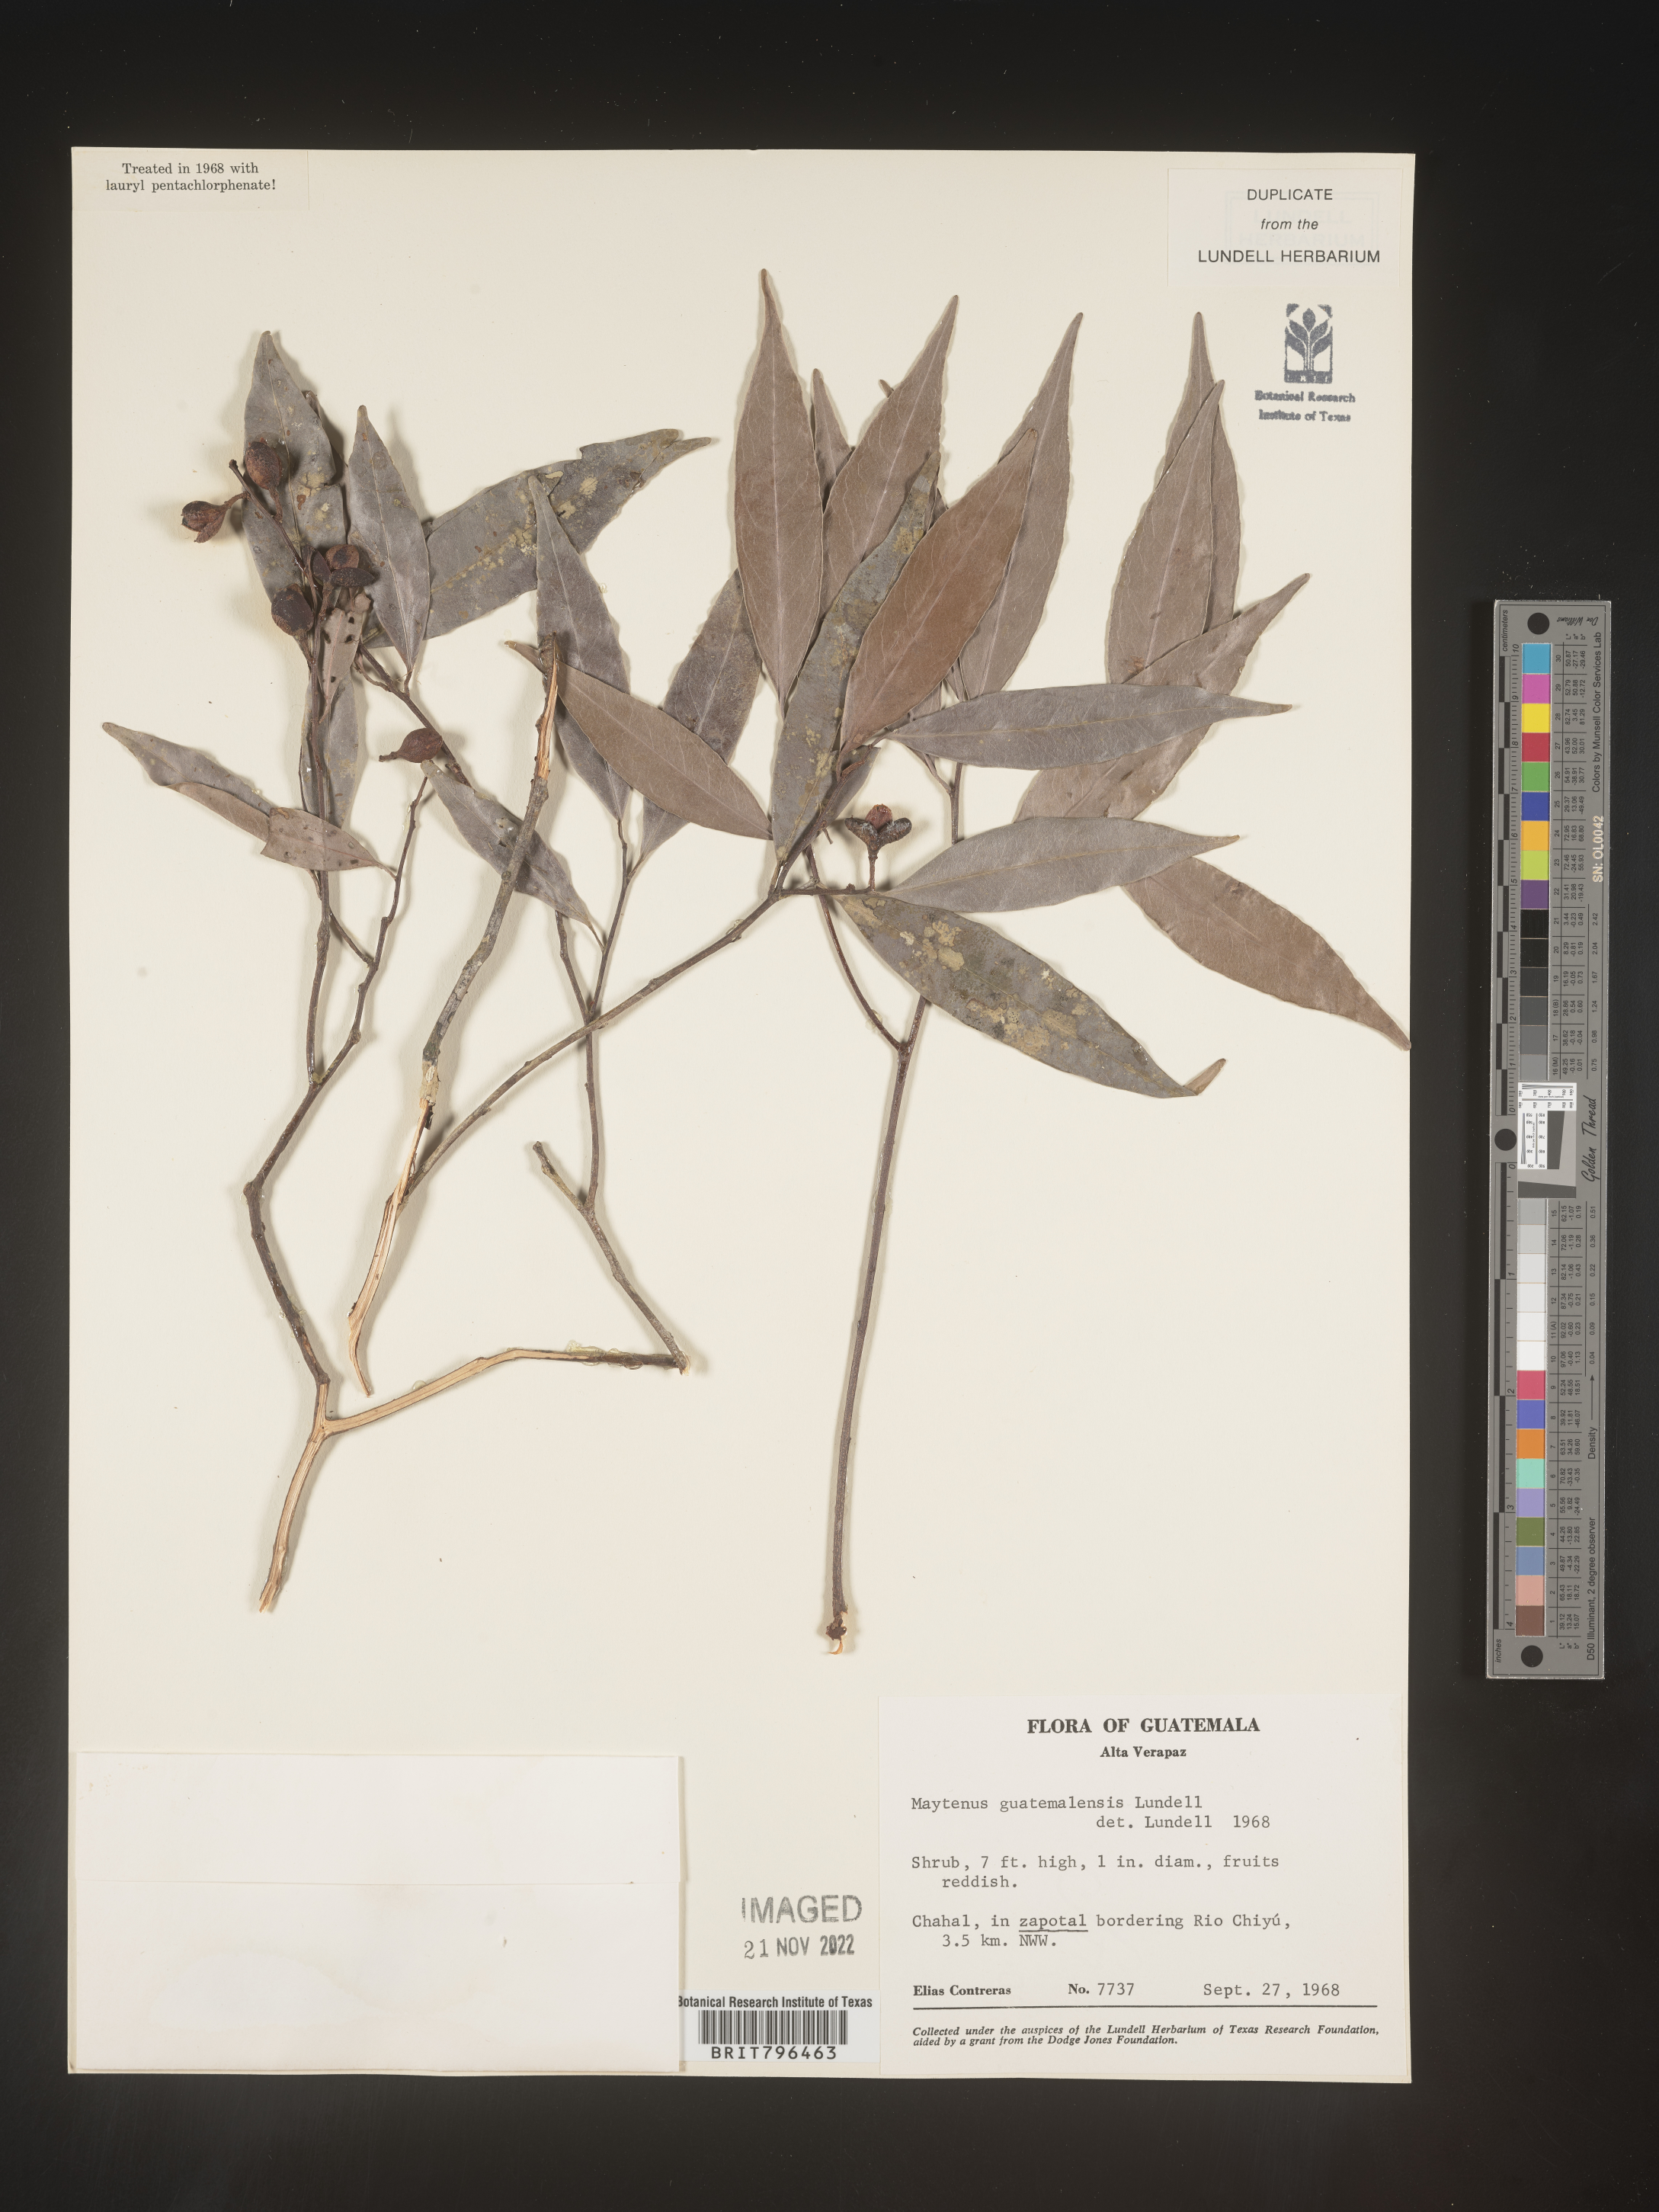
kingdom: Plantae
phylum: Tracheophyta
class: Magnoliopsida
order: Celastrales
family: Celastraceae
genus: Maytenus
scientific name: Maytenus
